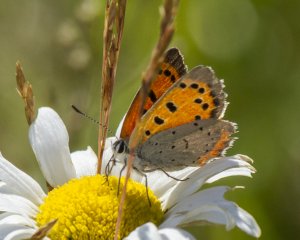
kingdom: Animalia
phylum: Arthropoda
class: Insecta
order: Lepidoptera
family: Lycaenidae
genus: Lycaena
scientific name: Lycaena phlaeas
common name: American Copper
